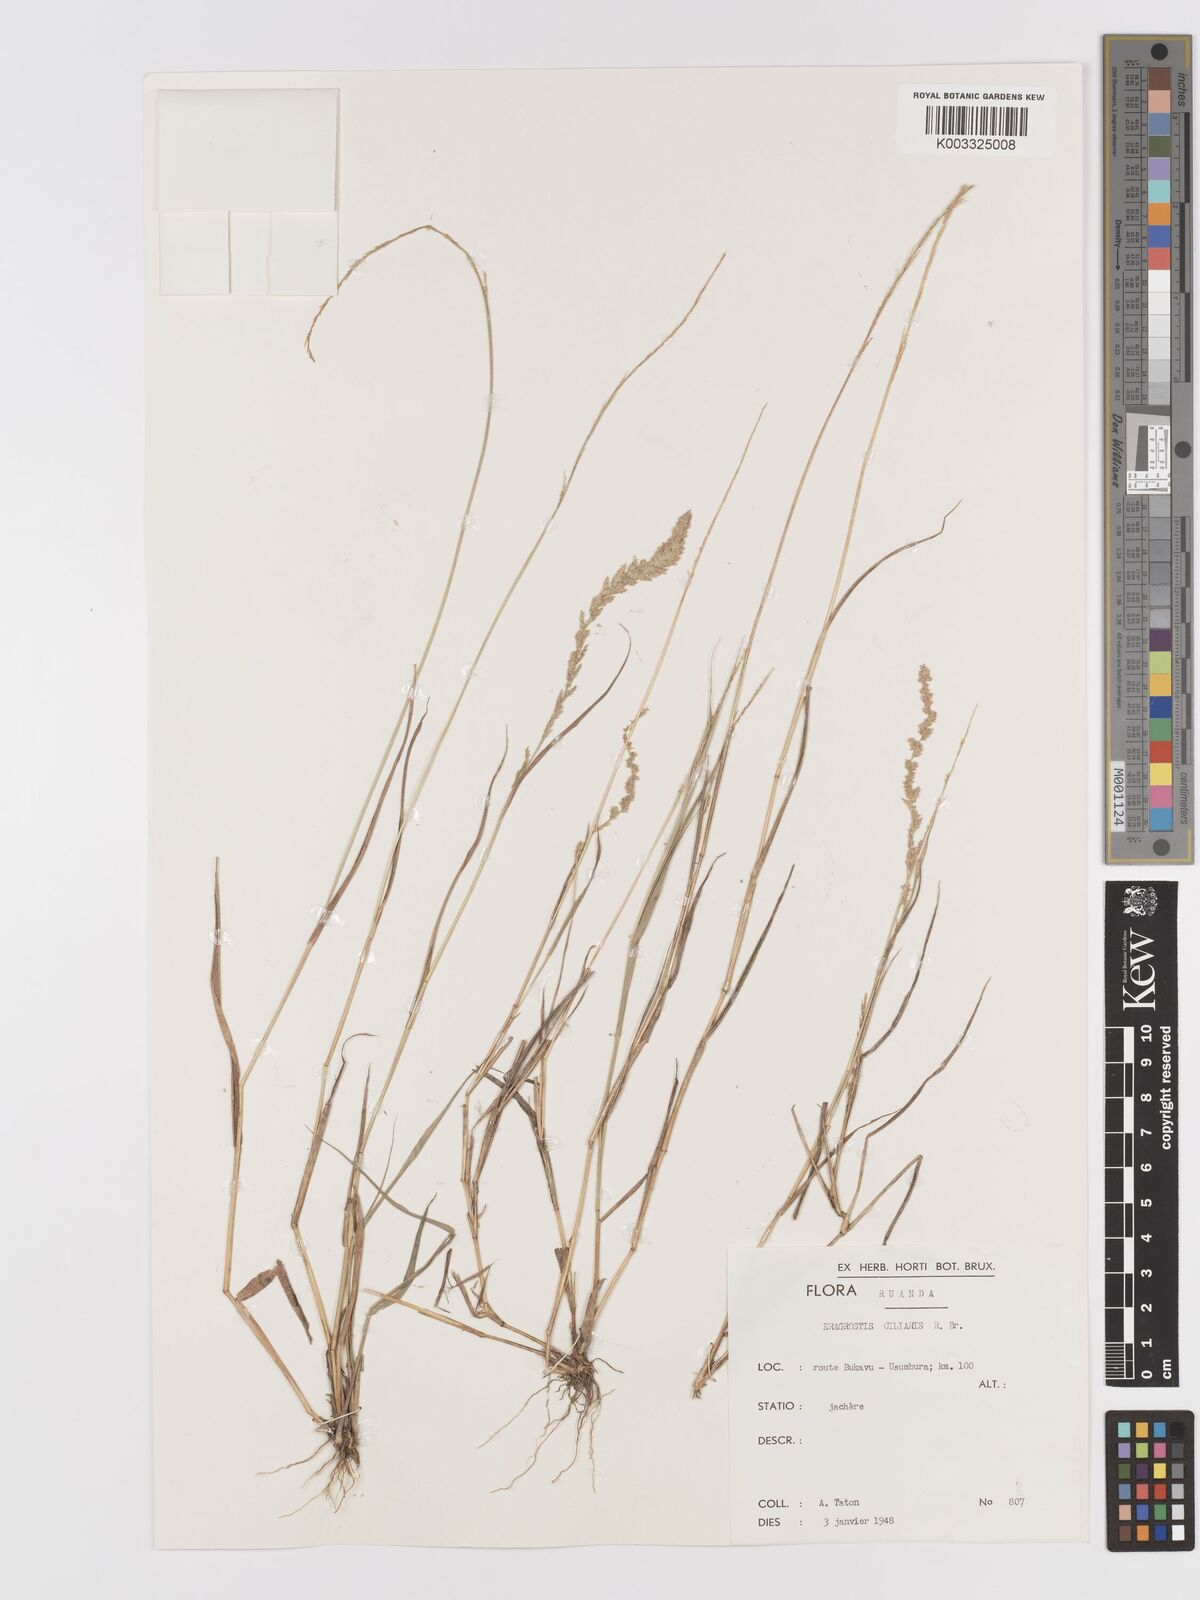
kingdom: Plantae
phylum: Tracheophyta
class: Liliopsida
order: Poales
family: Poaceae
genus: Eragrostis
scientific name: Eragrostis ciliaris
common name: Gophertail lovegrass
